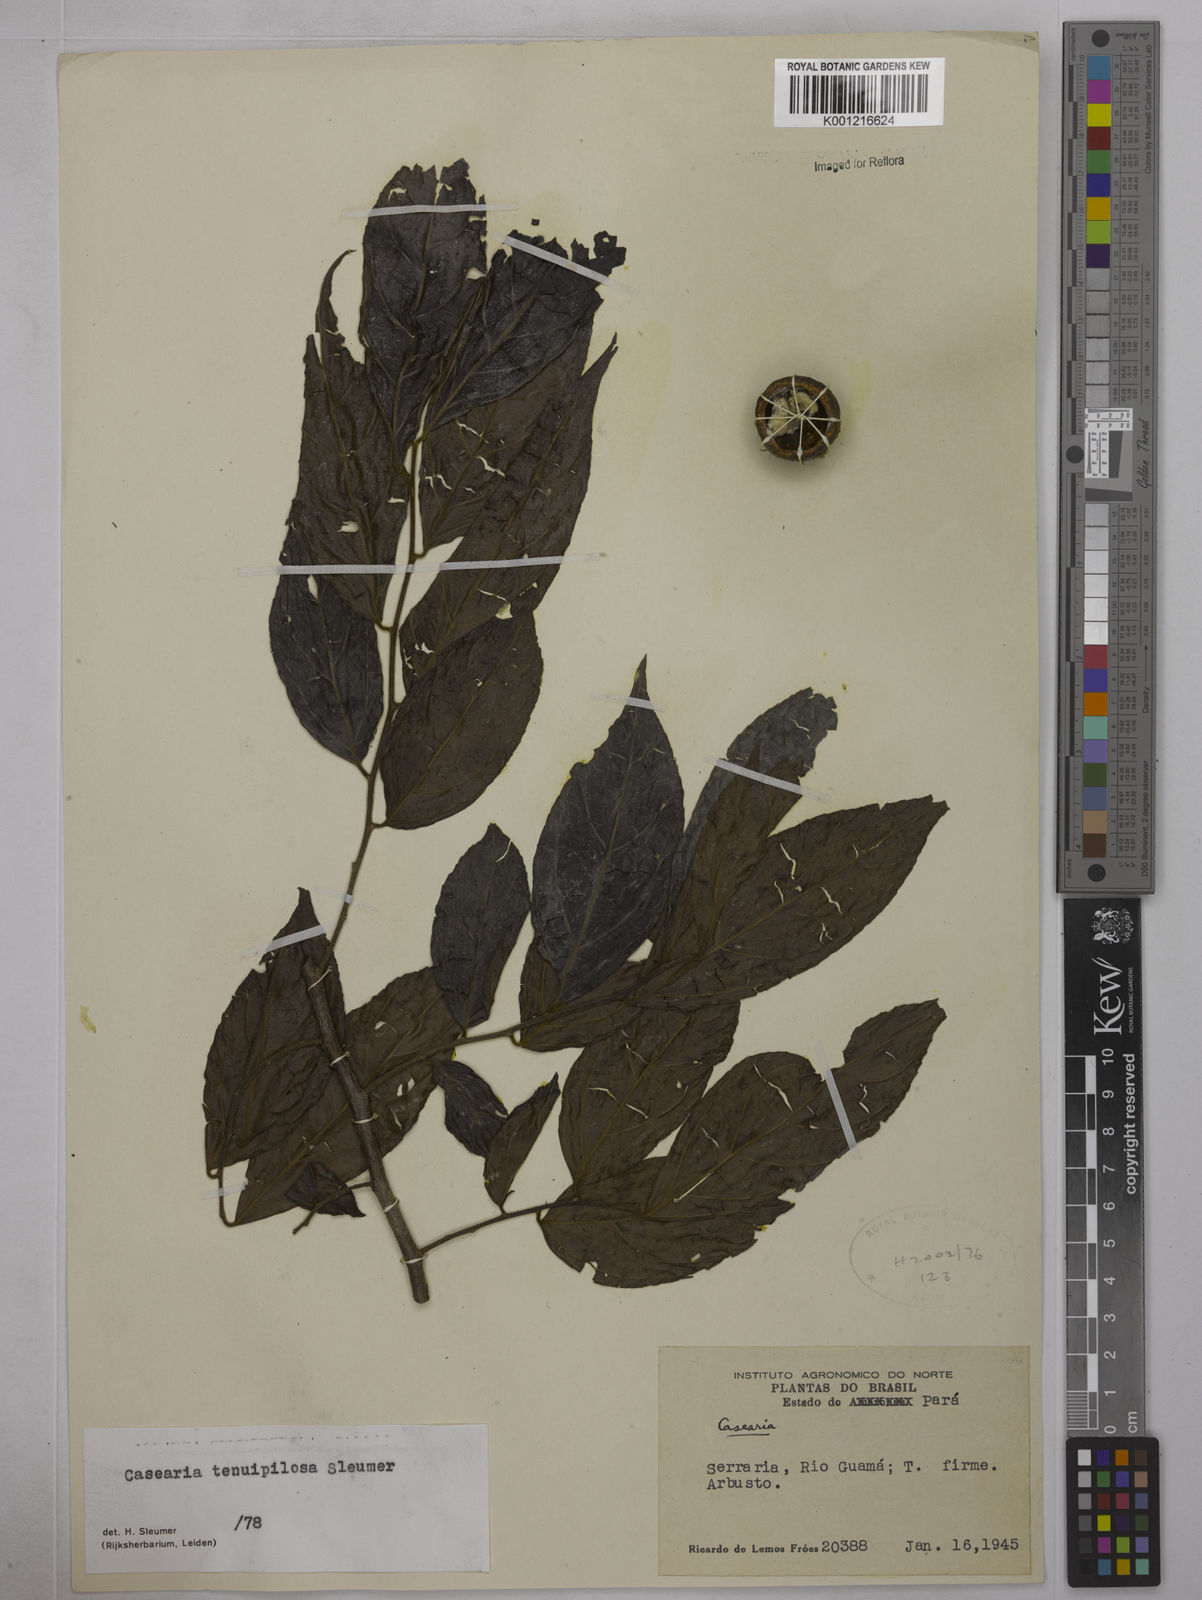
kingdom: Plantae
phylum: Tracheophyta
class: Magnoliopsida
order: Malpighiales
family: Salicaceae
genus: Casearia
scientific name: Casearia tenuipilosa
